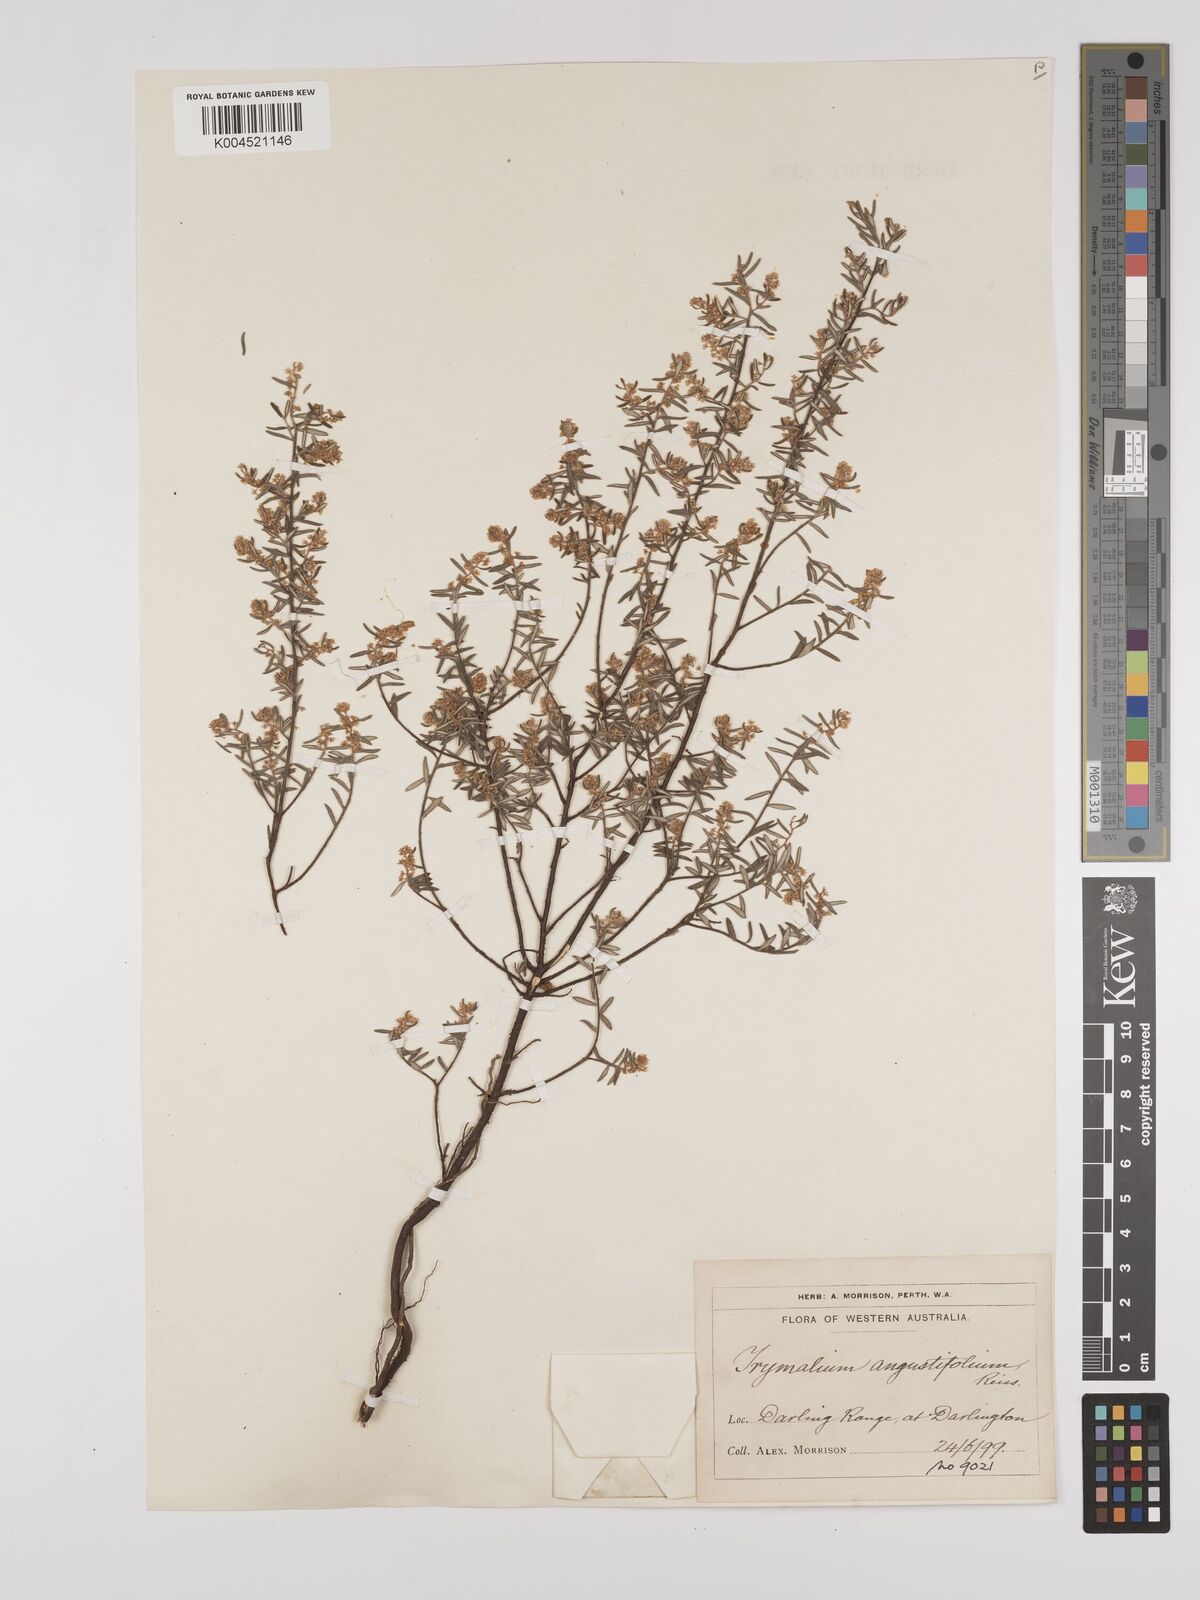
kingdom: Plantae
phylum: Tracheophyta
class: Magnoliopsida
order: Rosales
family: Rhamnaceae
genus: Trymalium
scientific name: Trymalium angustifolium
